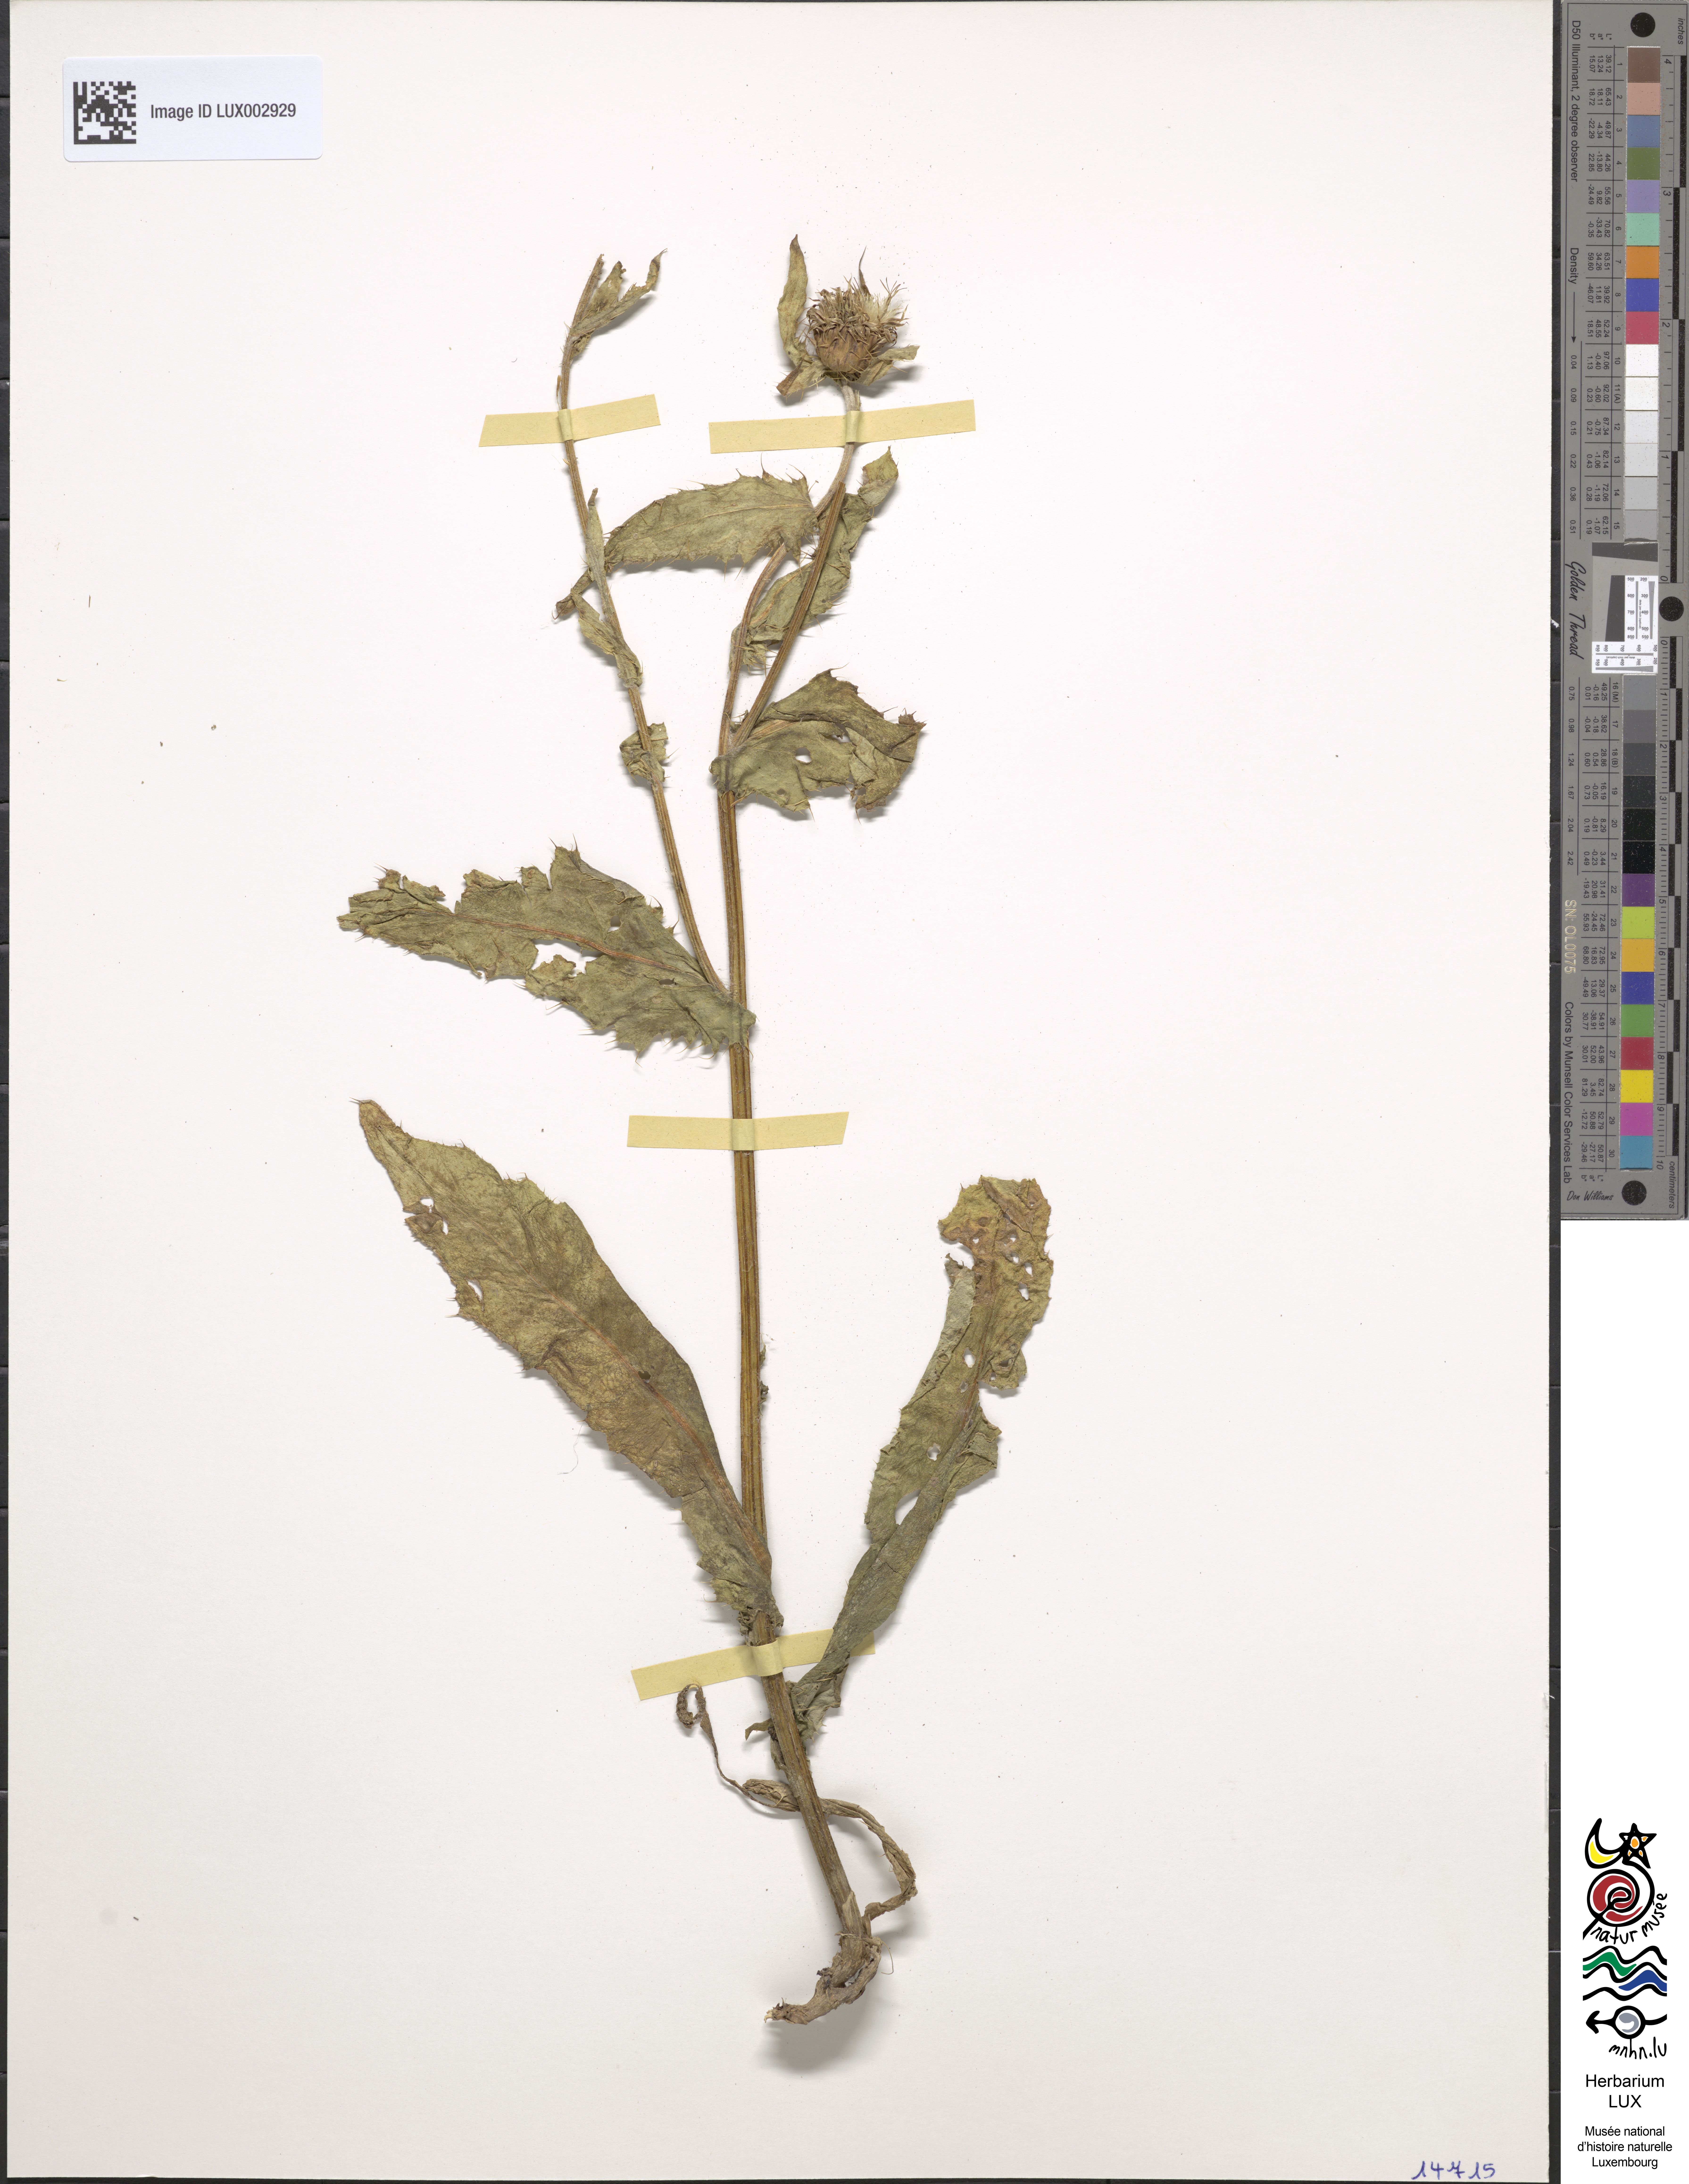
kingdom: Plantae
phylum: Tracheophyta
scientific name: Tracheophyta
